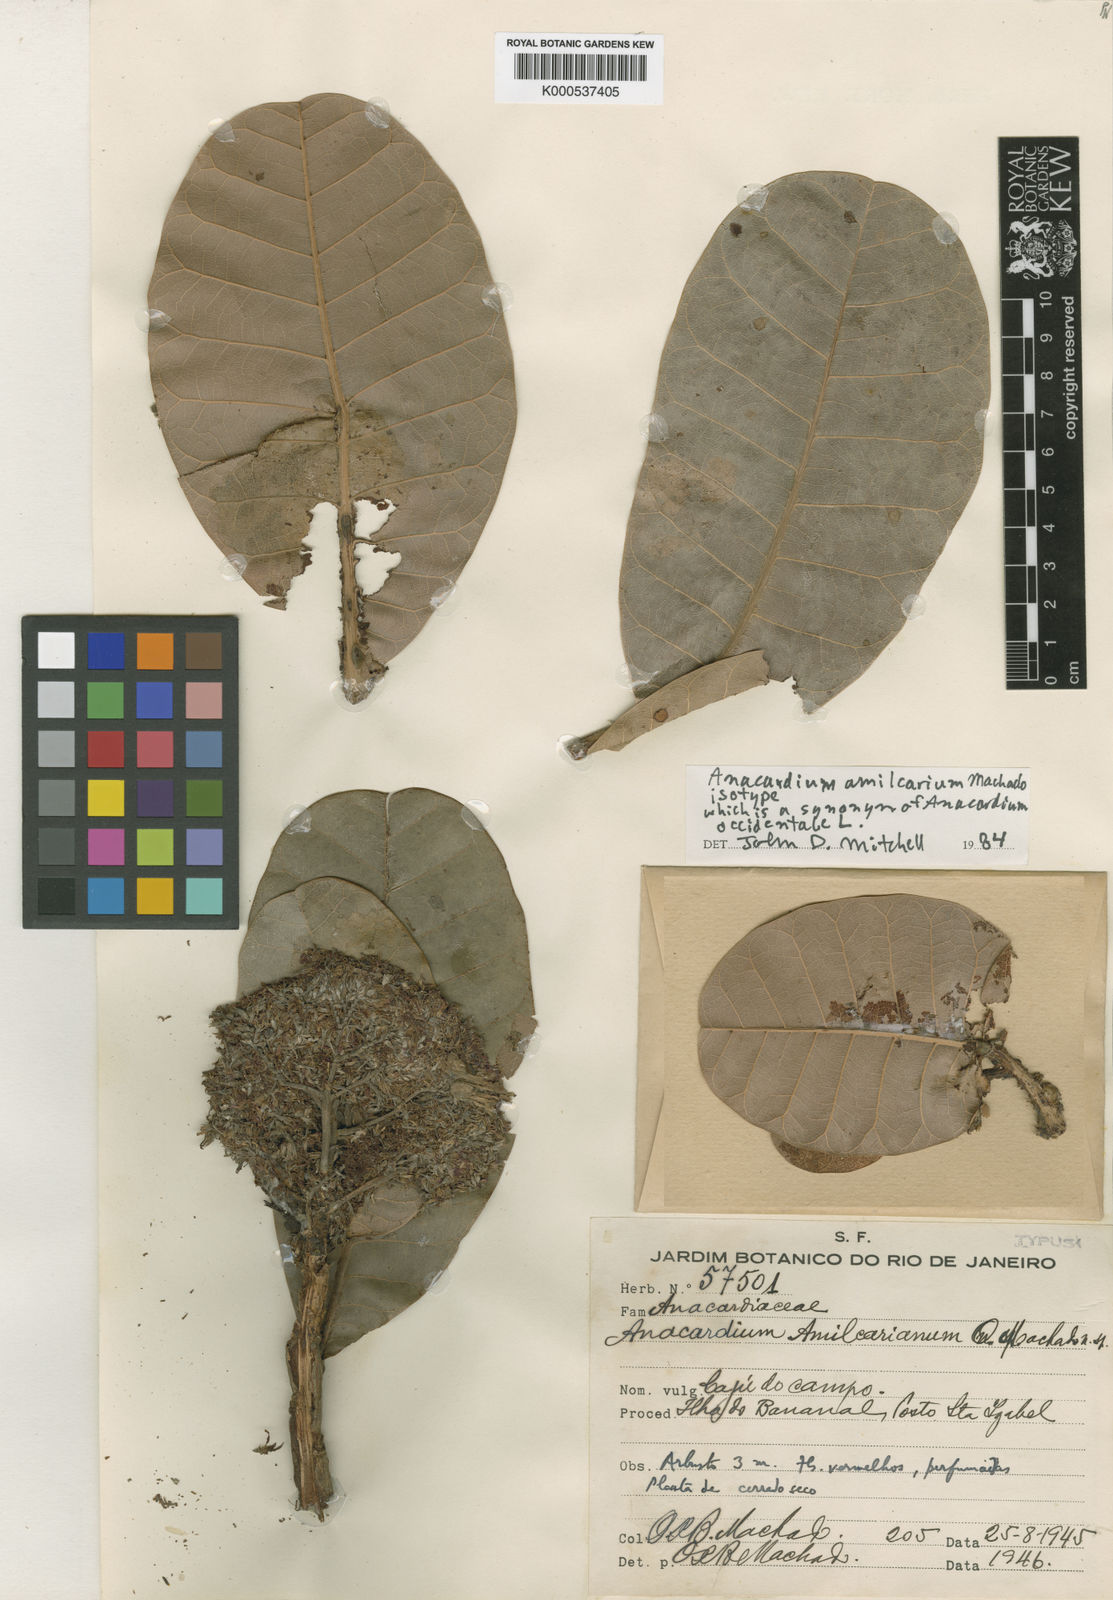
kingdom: Plantae
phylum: Tracheophyta
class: Magnoliopsida
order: Sapindales
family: Anacardiaceae
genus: Anacardium
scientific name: Anacardium occidentale
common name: Cashew
